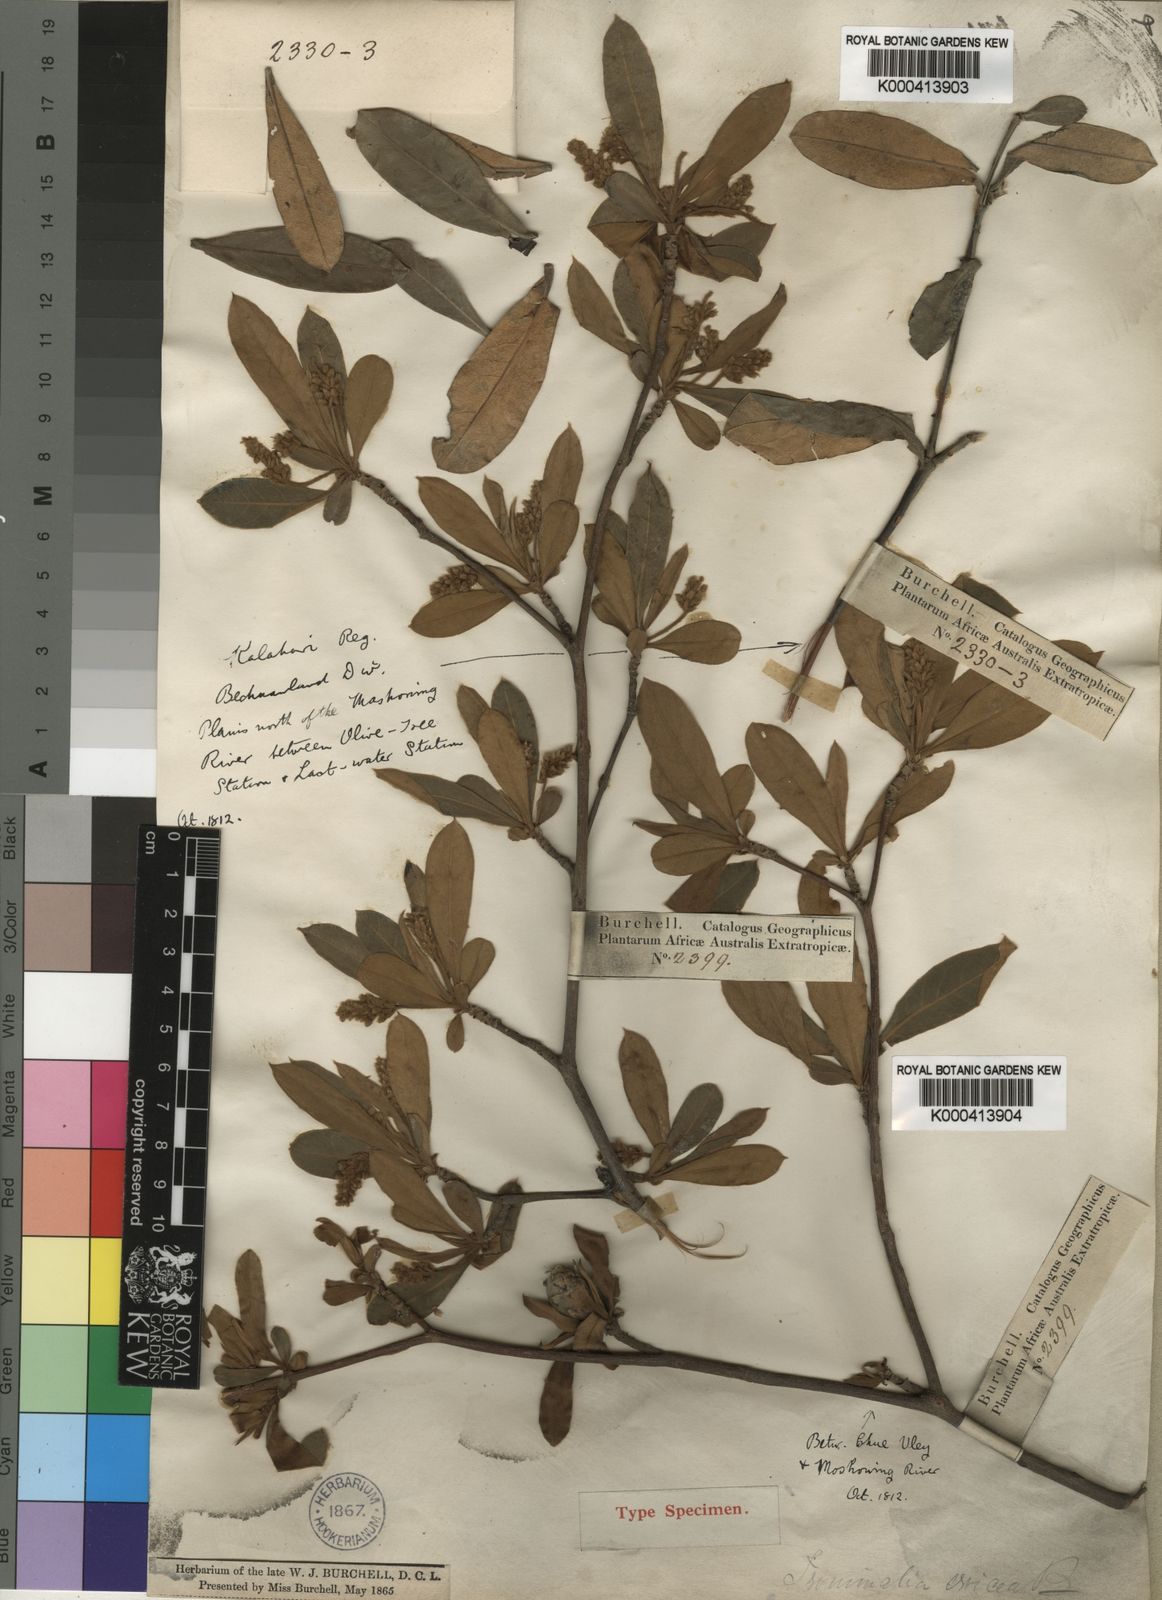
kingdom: Plantae
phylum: Tracheophyta
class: Magnoliopsida
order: Myrtales
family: Combretaceae
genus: Terminalia
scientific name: Terminalia sericea
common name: Clusterleaf
